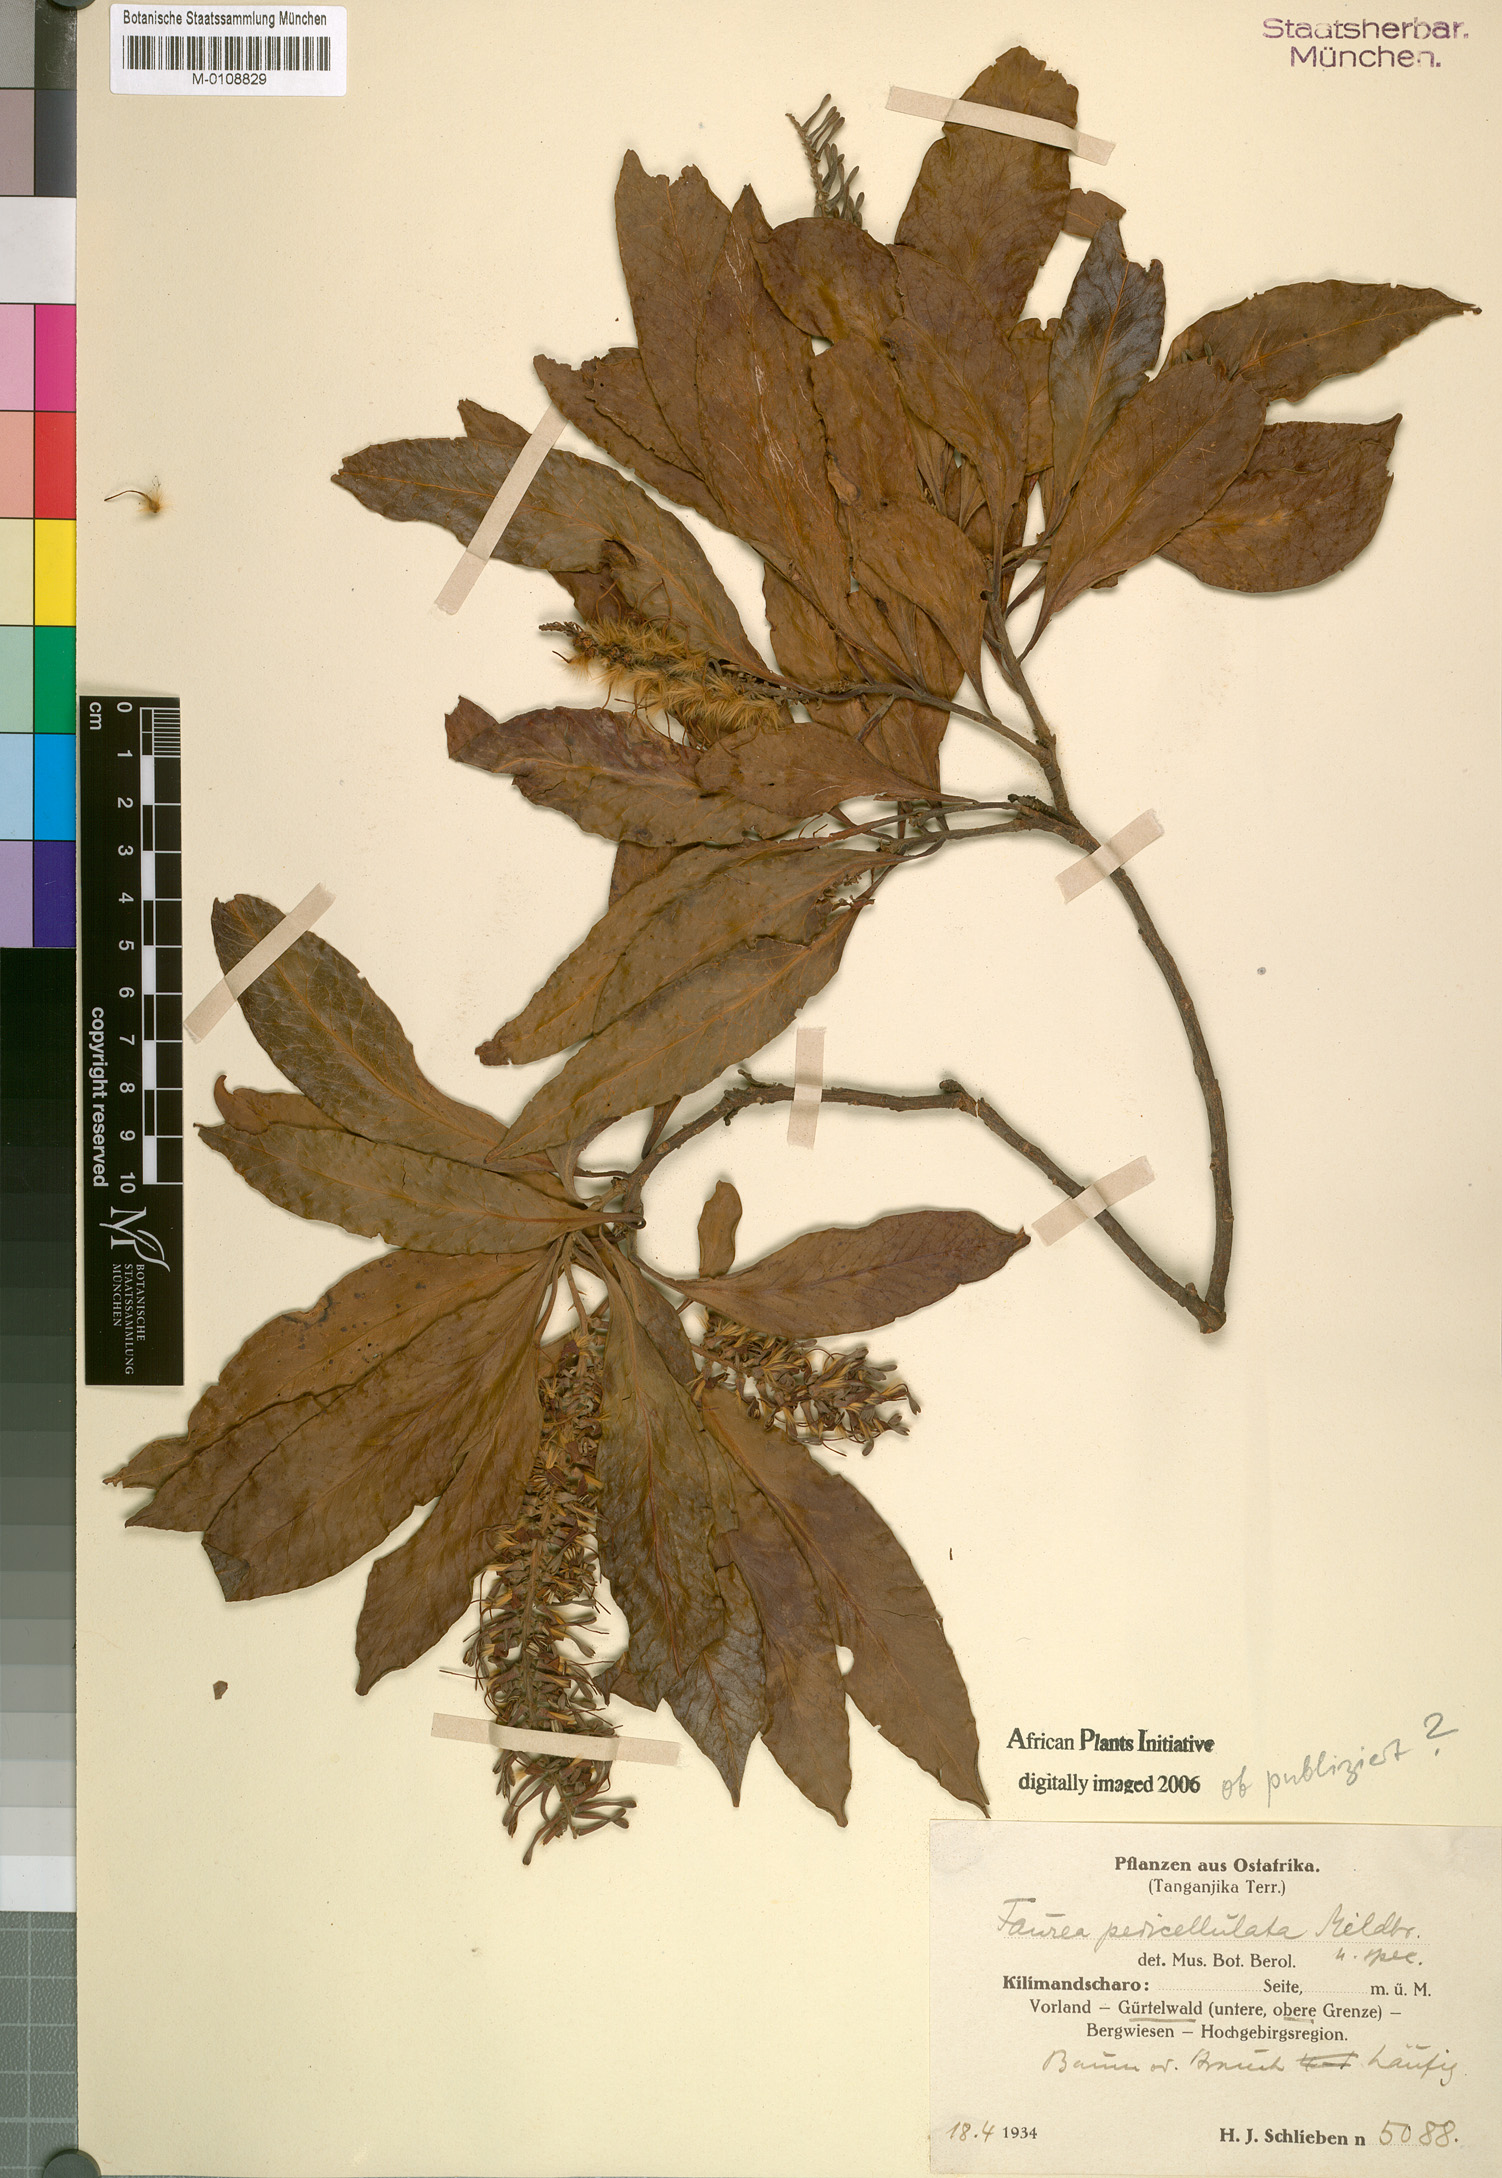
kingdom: Plantae
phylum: Tracheophyta
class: Magnoliopsida
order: Proteales
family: Proteaceae
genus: Faurea
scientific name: Faurea
